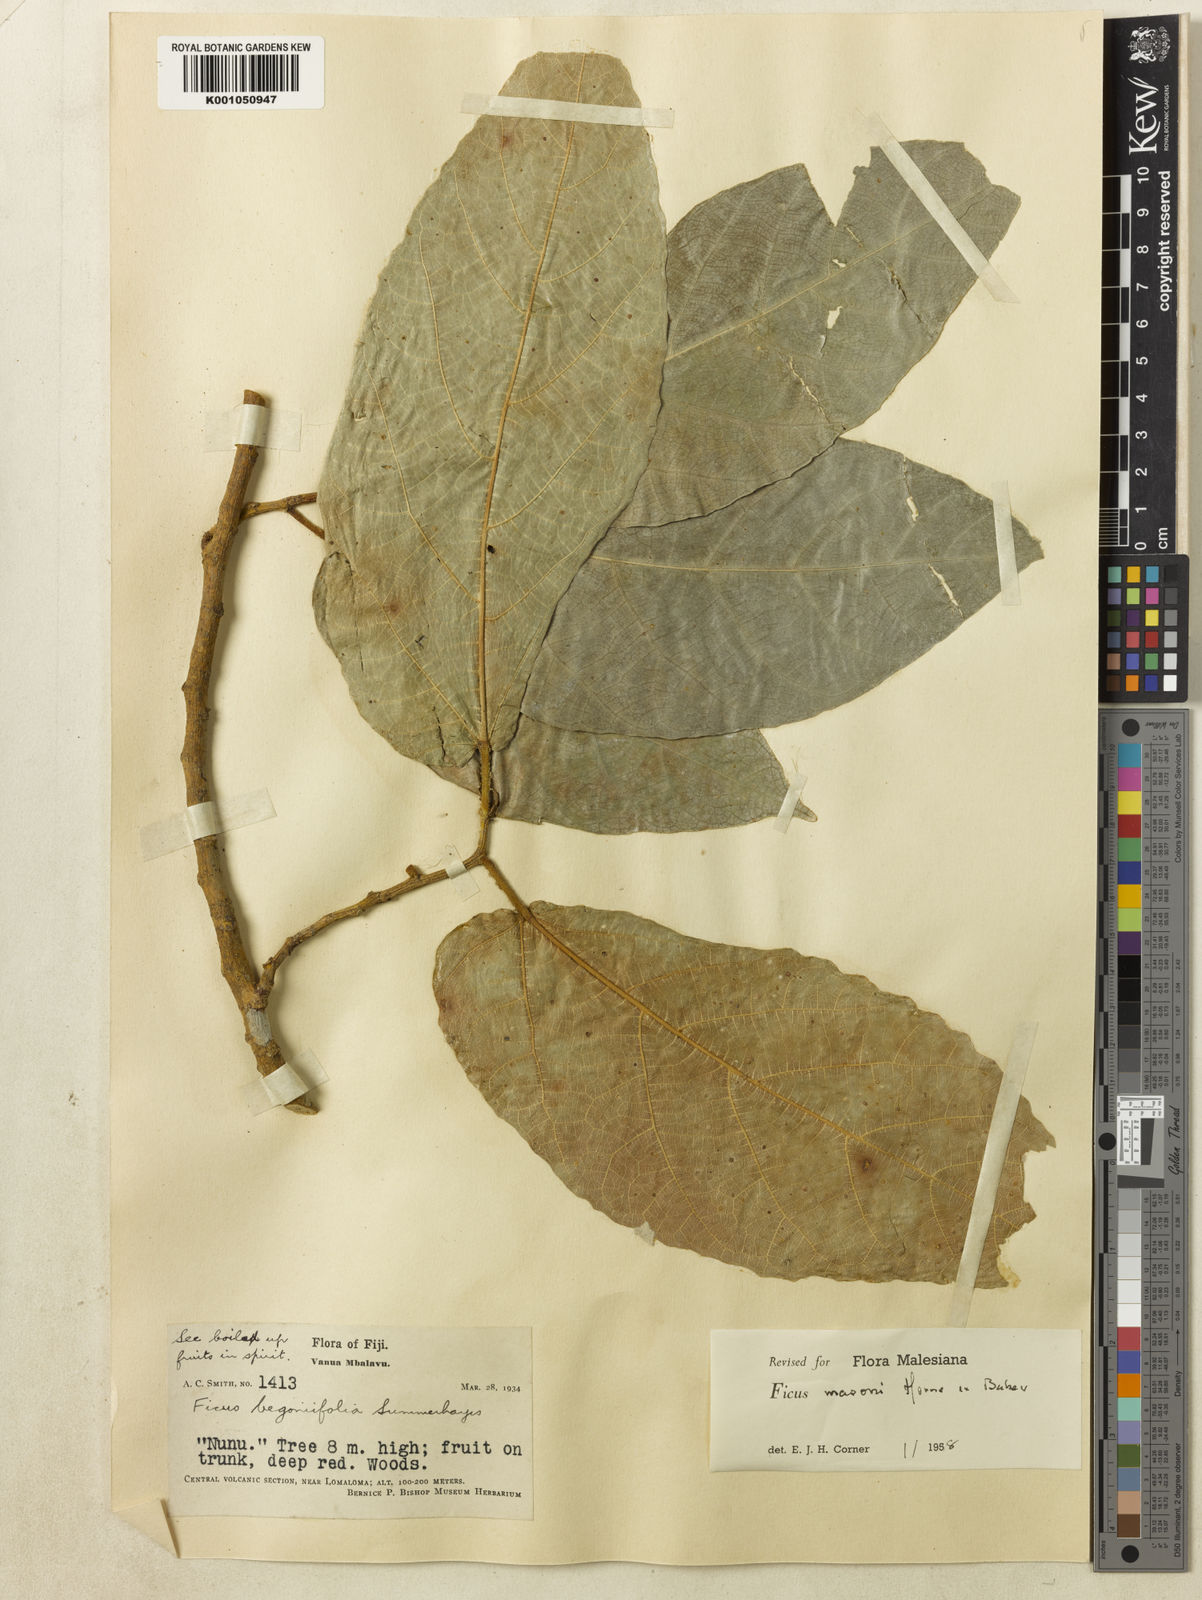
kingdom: Plantae
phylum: Tracheophyta
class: Magnoliopsida
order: Rosales
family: Moraceae
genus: Ficus
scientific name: Ficus masonii
